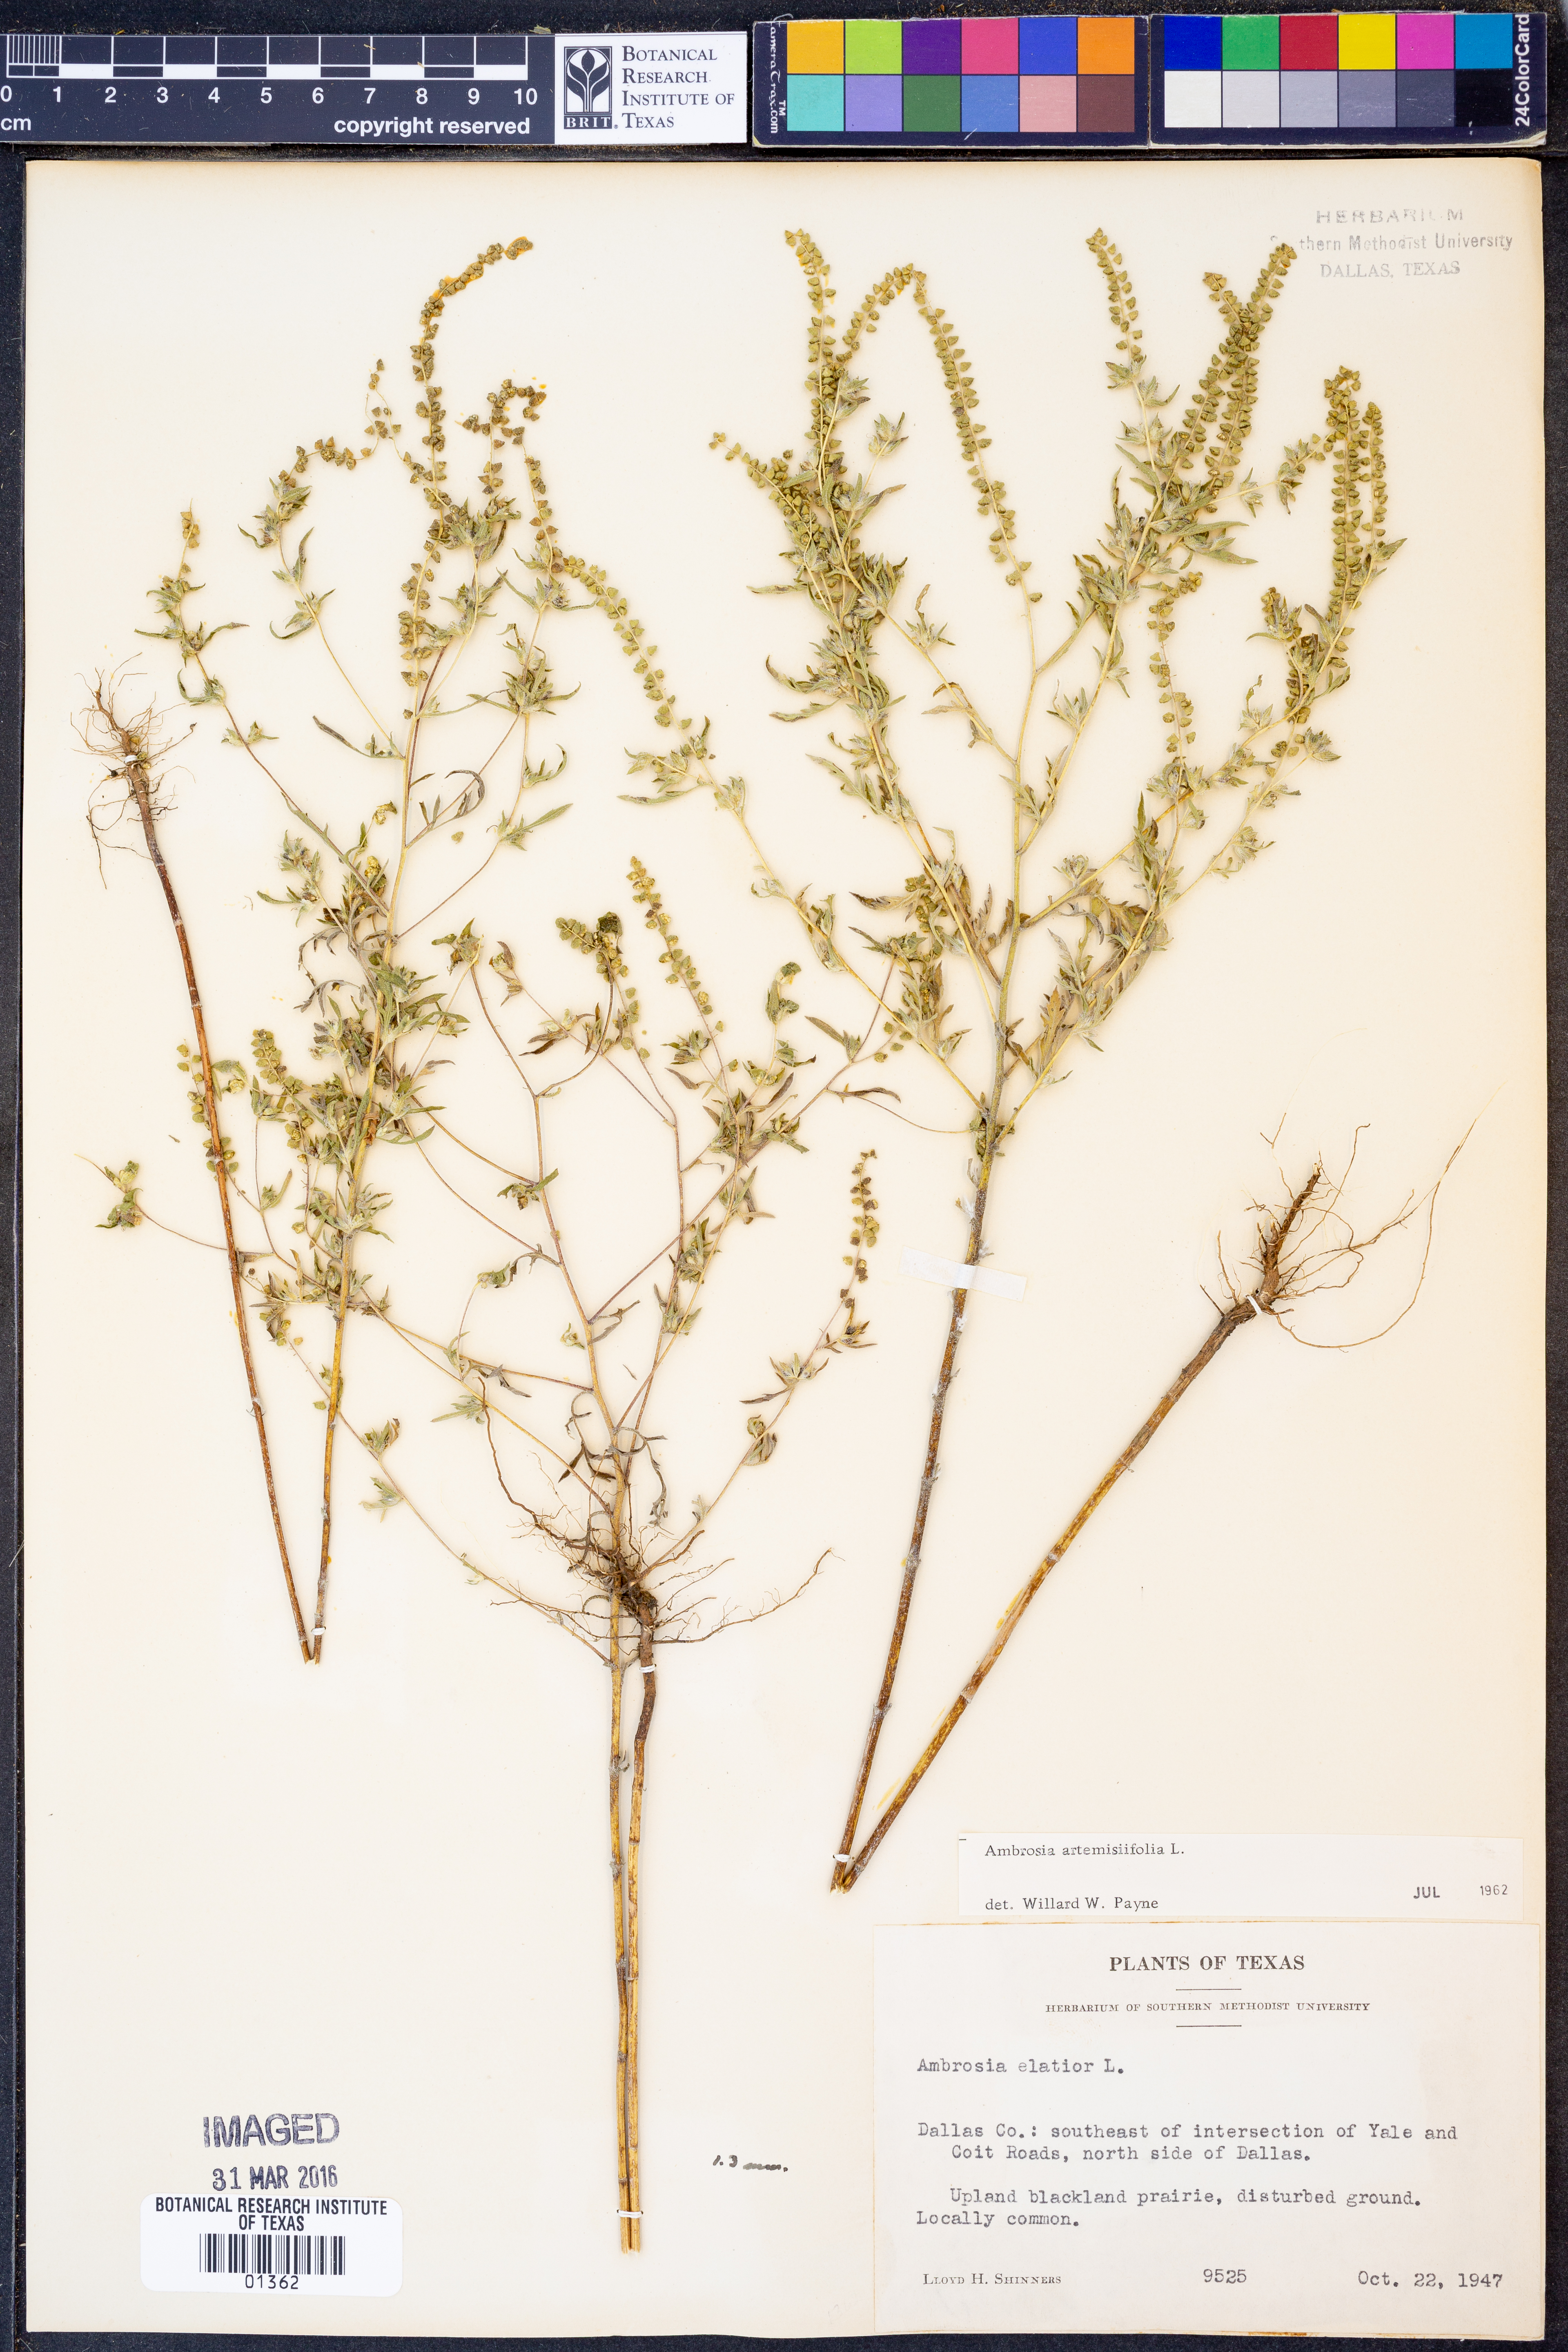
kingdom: Plantae
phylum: Tracheophyta
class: Magnoliopsida
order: Asterales
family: Asteraceae
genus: Ambrosia
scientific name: Ambrosia artemisiifolia
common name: Annual ragweed
